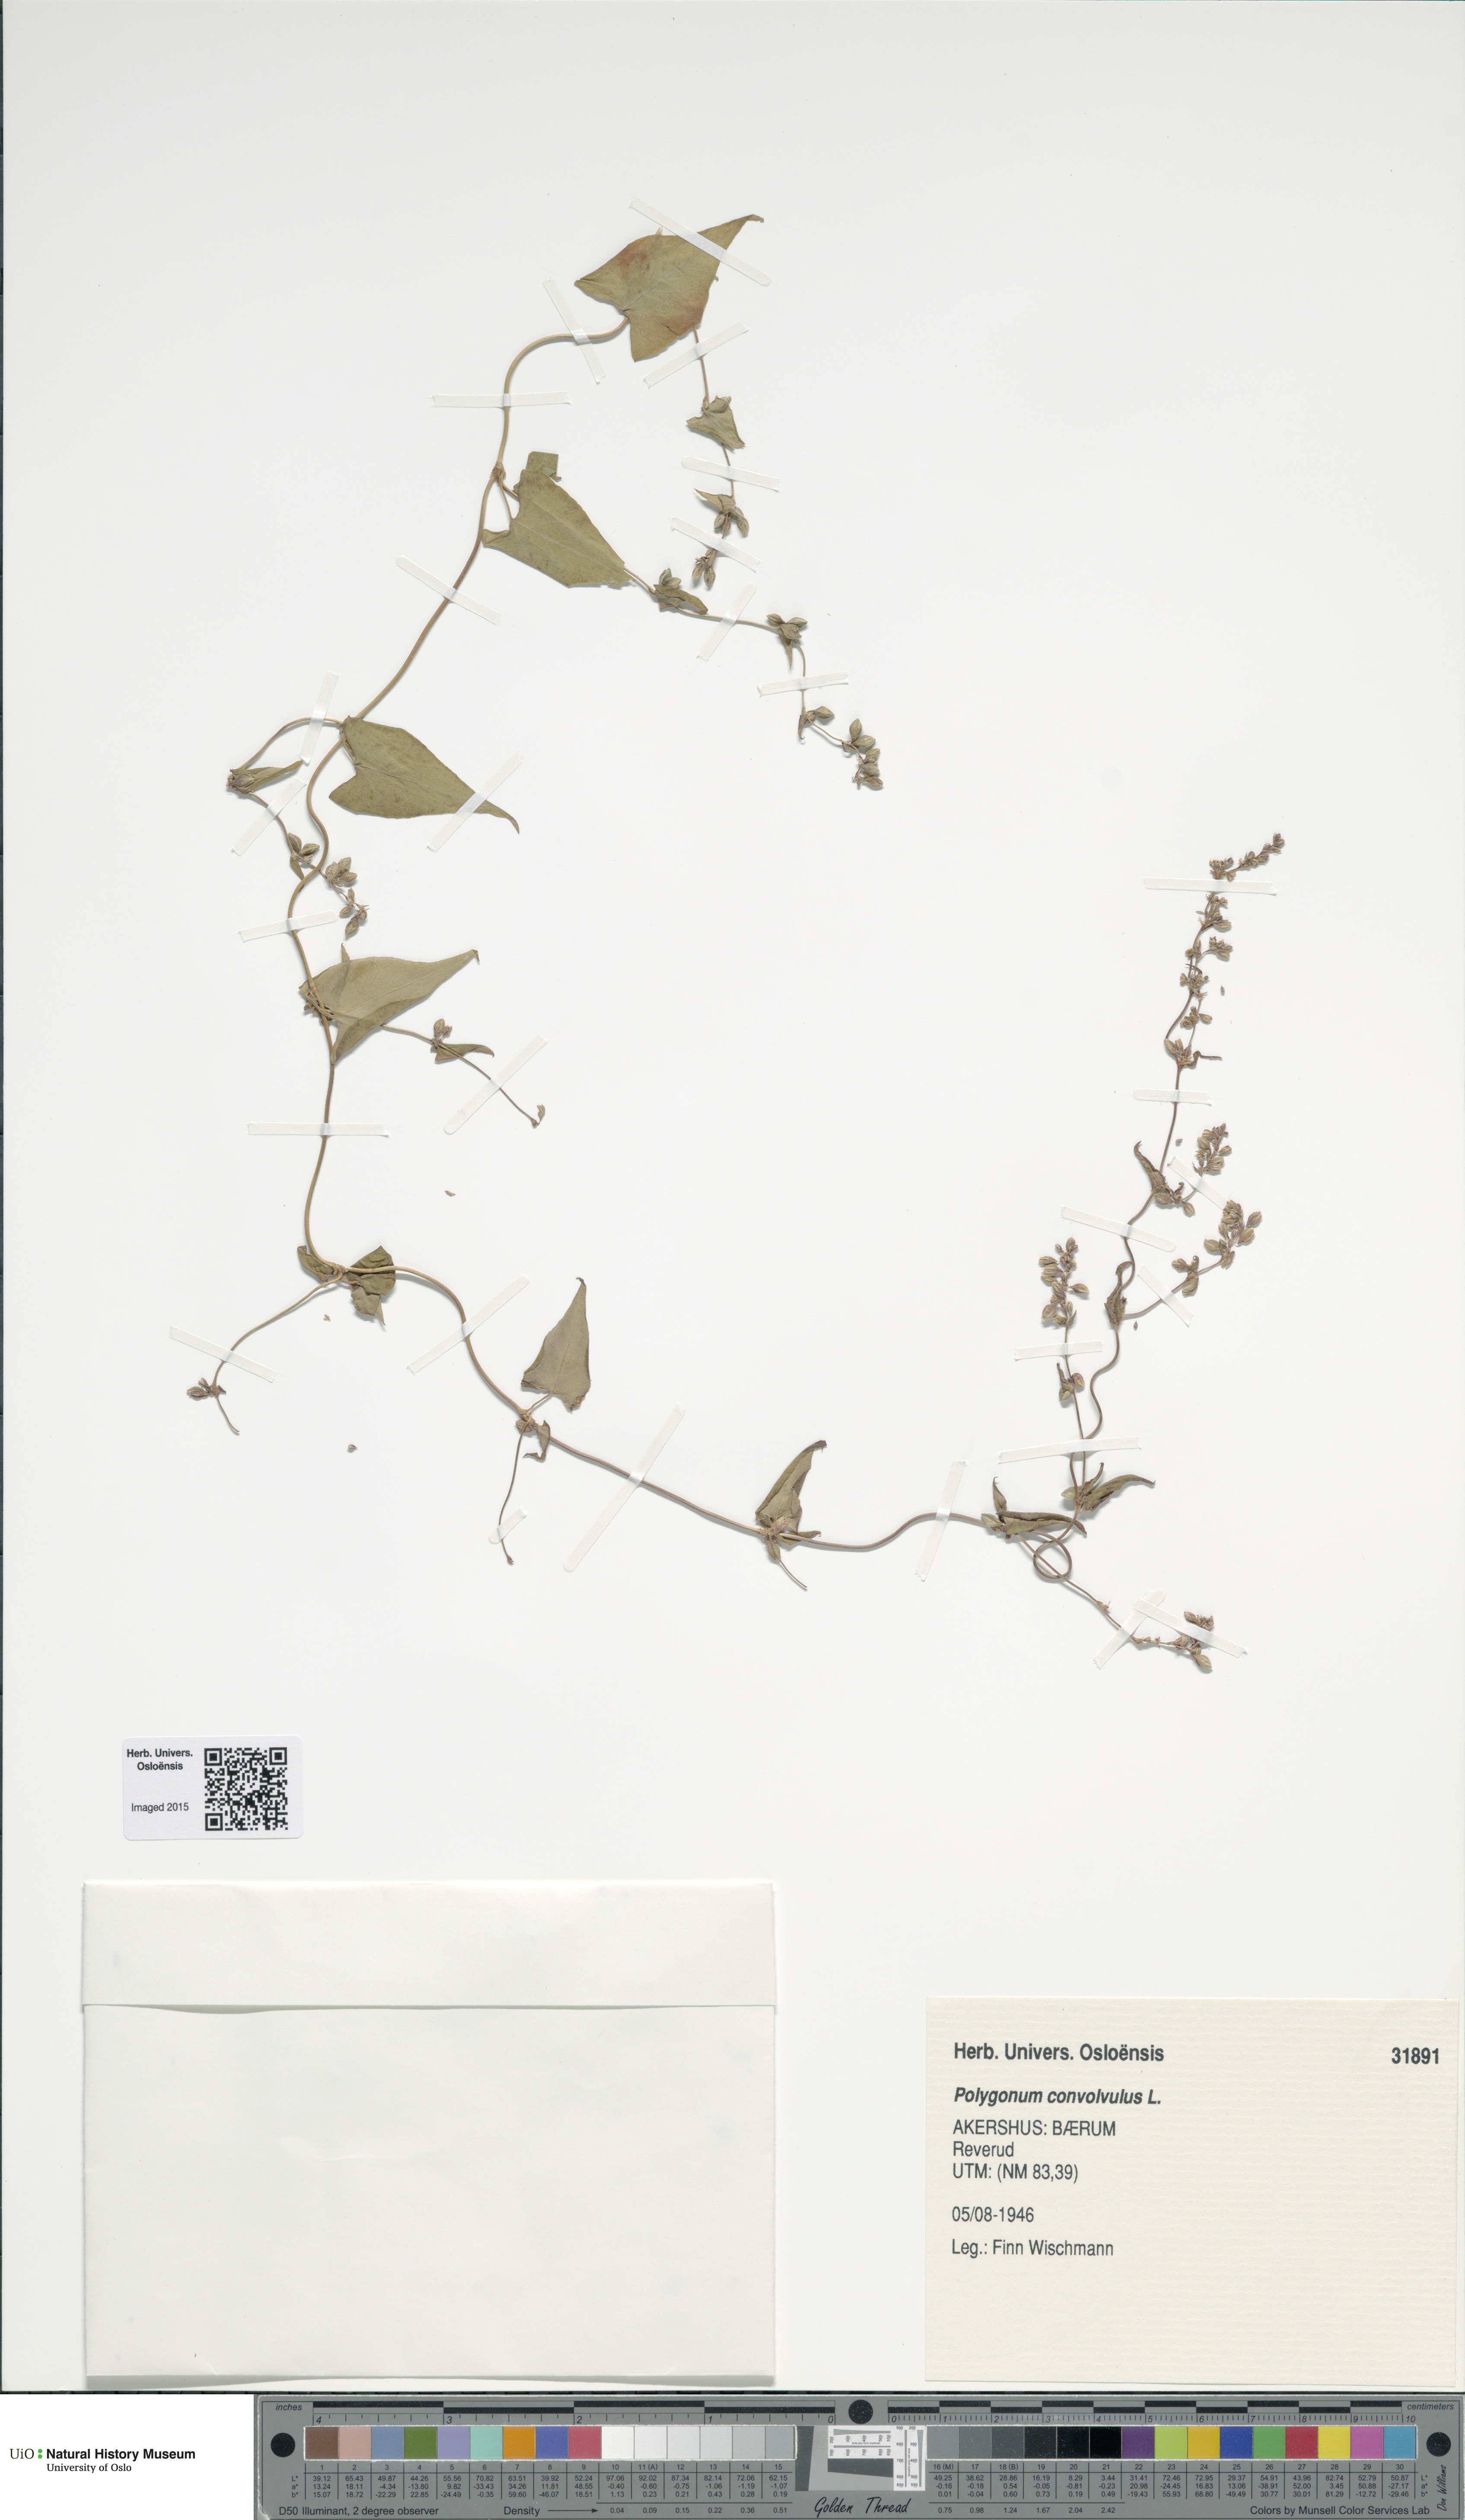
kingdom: Plantae
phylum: Tracheophyta
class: Magnoliopsida
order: Caryophyllales
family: Polygonaceae
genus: Fallopia
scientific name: Fallopia convolvulus
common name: Black bindweed
